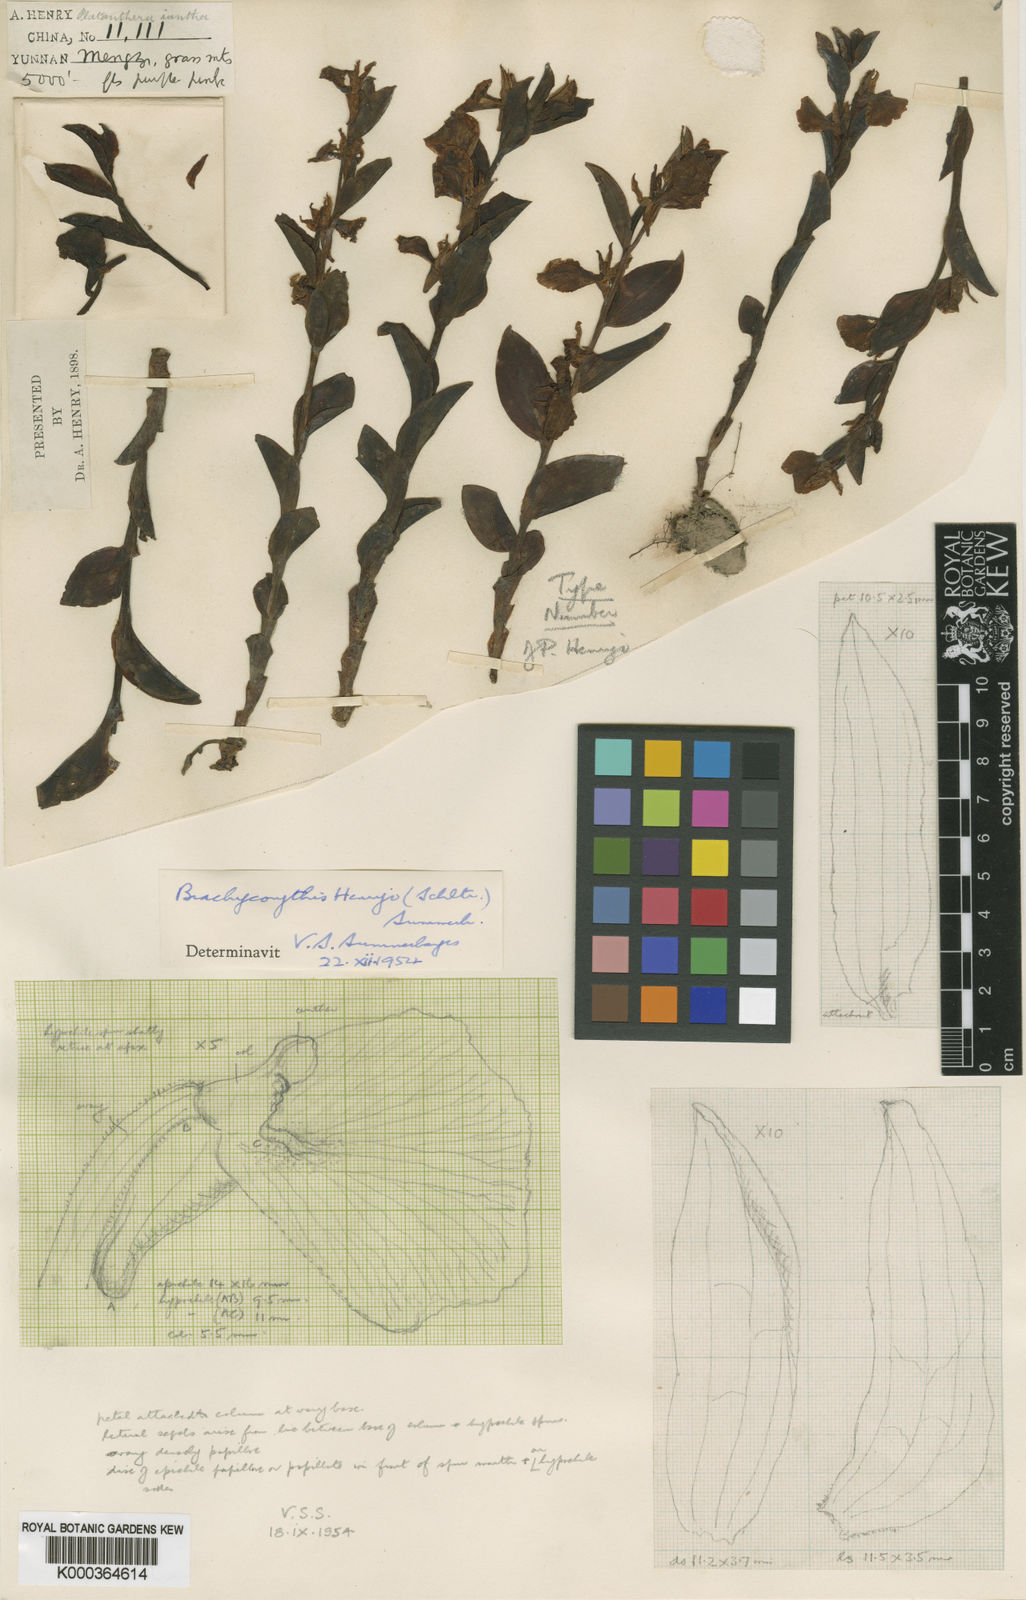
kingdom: Plantae
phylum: Tracheophyta
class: Liliopsida
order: Asparagales
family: Orchidaceae
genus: Brachycorythis
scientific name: Brachycorythis henryi
